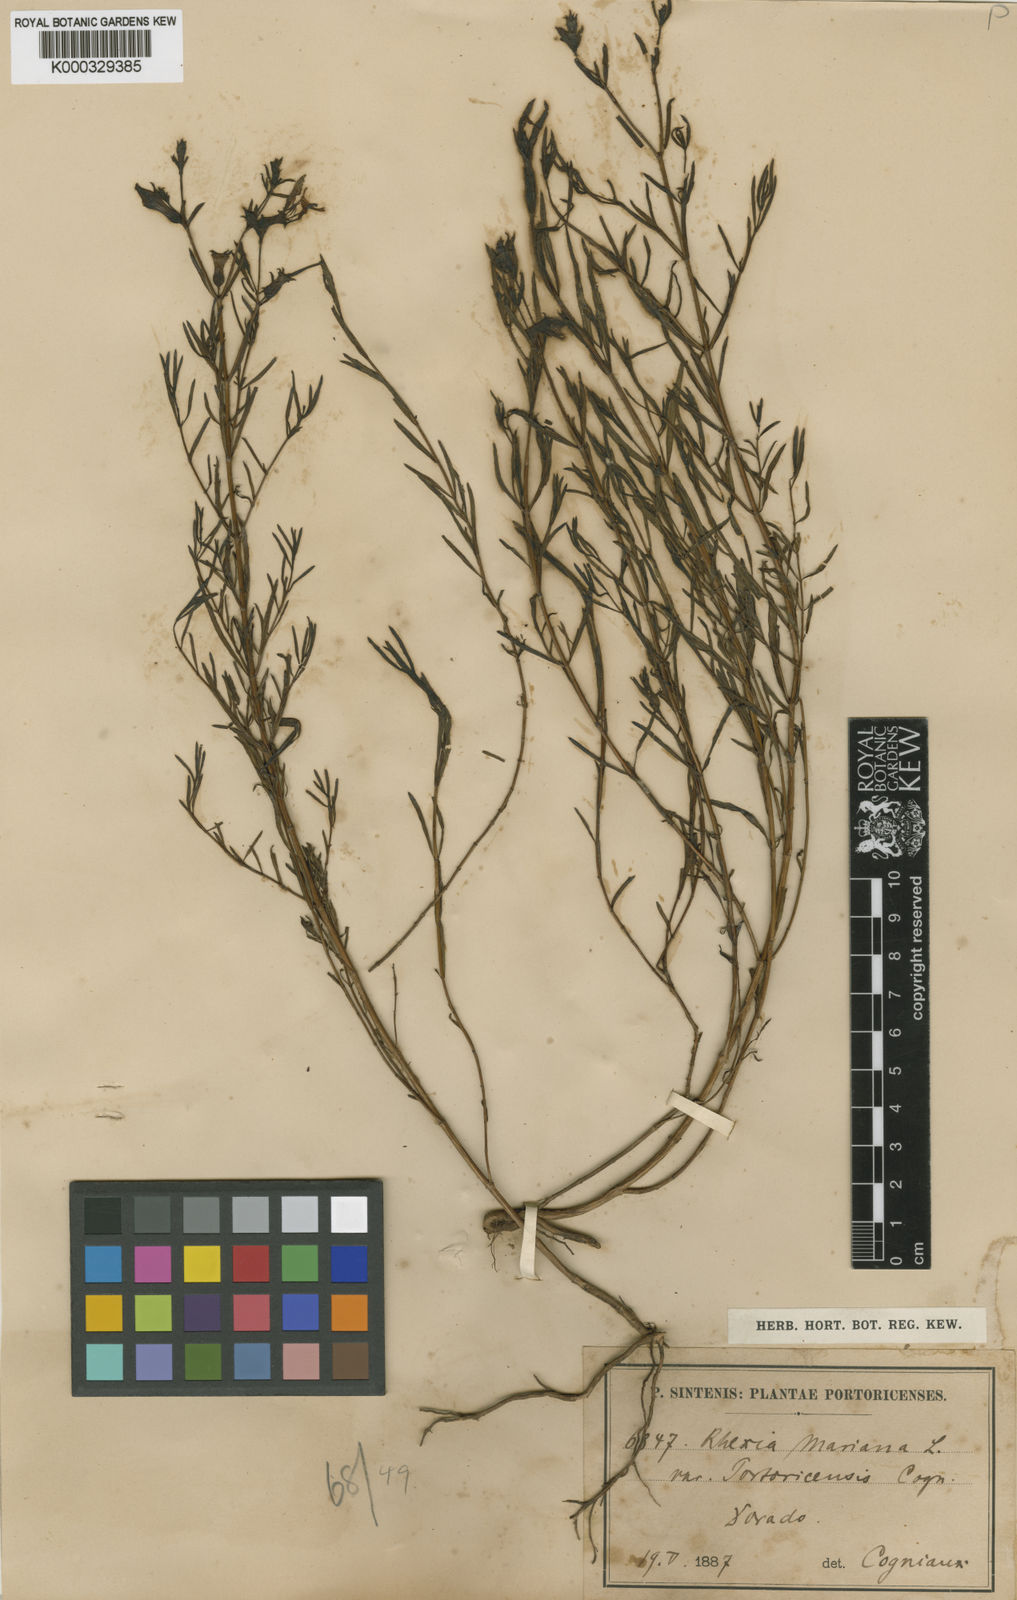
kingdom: Plantae
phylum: Tracheophyta
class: Magnoliopsida
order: Myrtales
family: Melastomataceae
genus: Rhexia
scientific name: Rhexia cubensis
